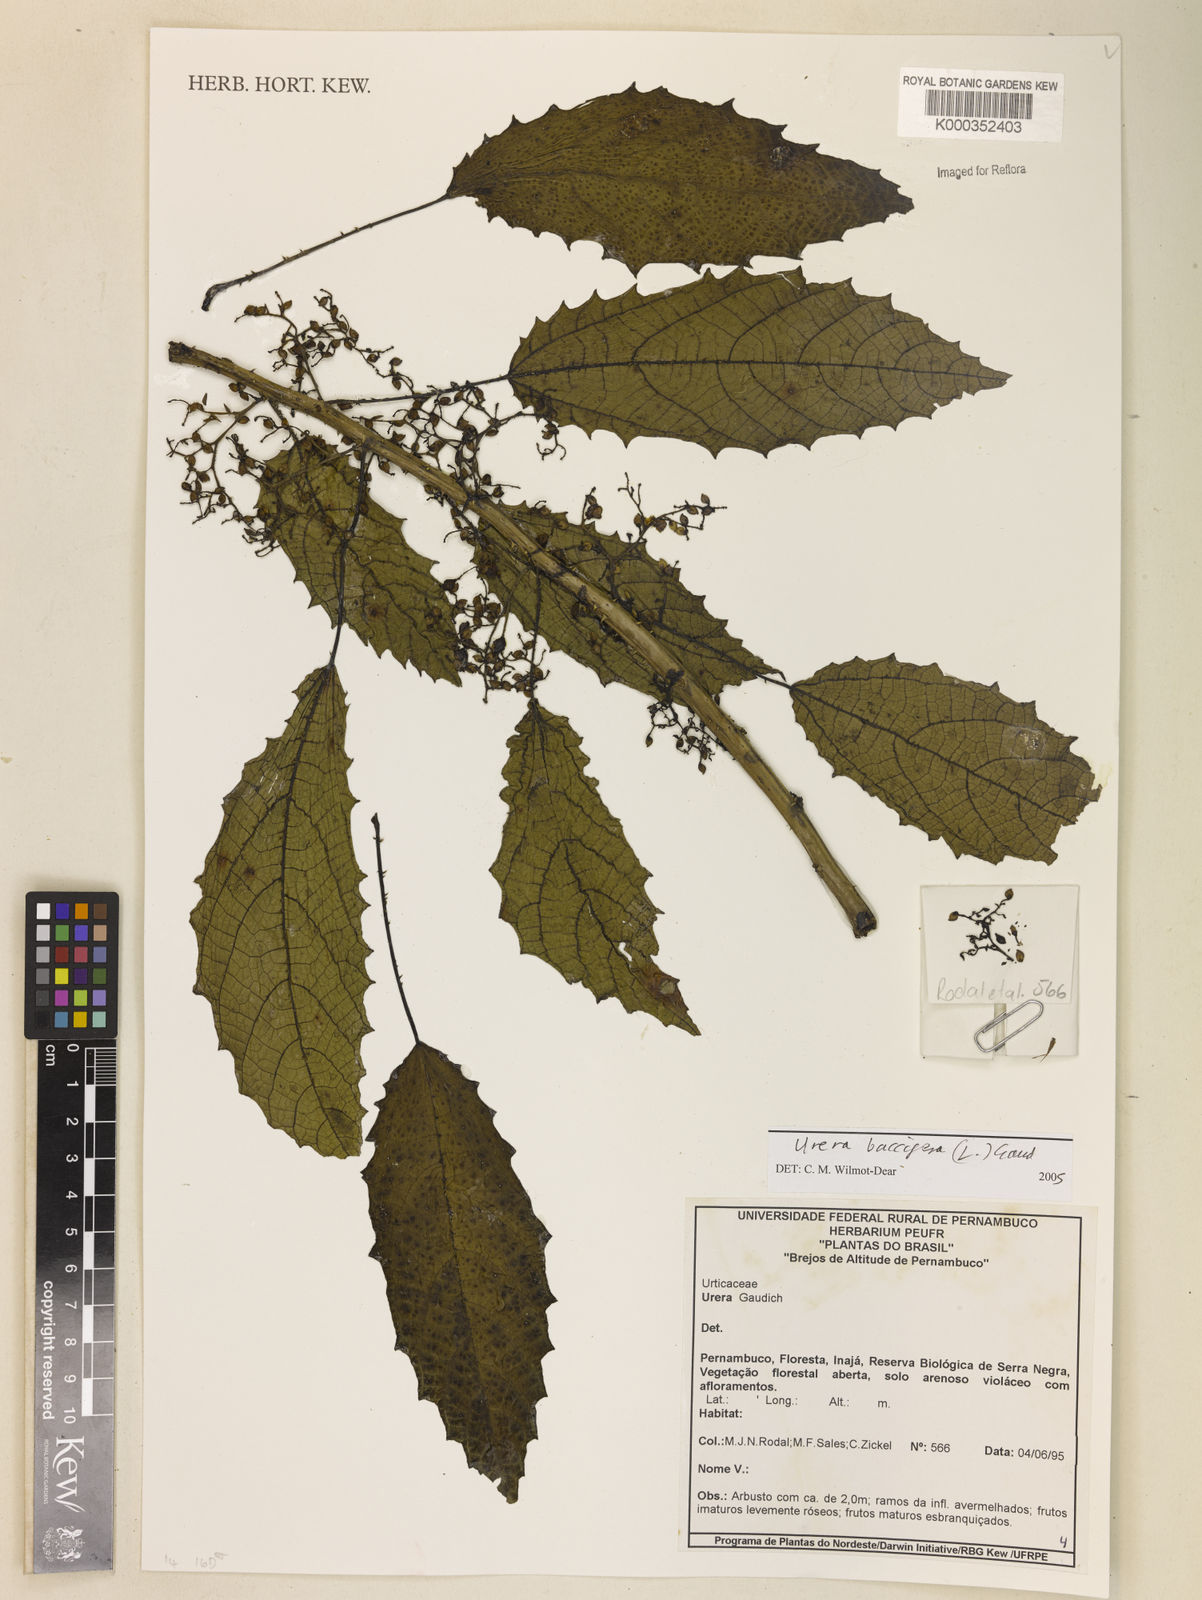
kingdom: Plantae
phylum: Tracheophyta
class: Magnoliopsida
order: Rosales
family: Urticaceae
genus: Urera
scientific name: Urera
